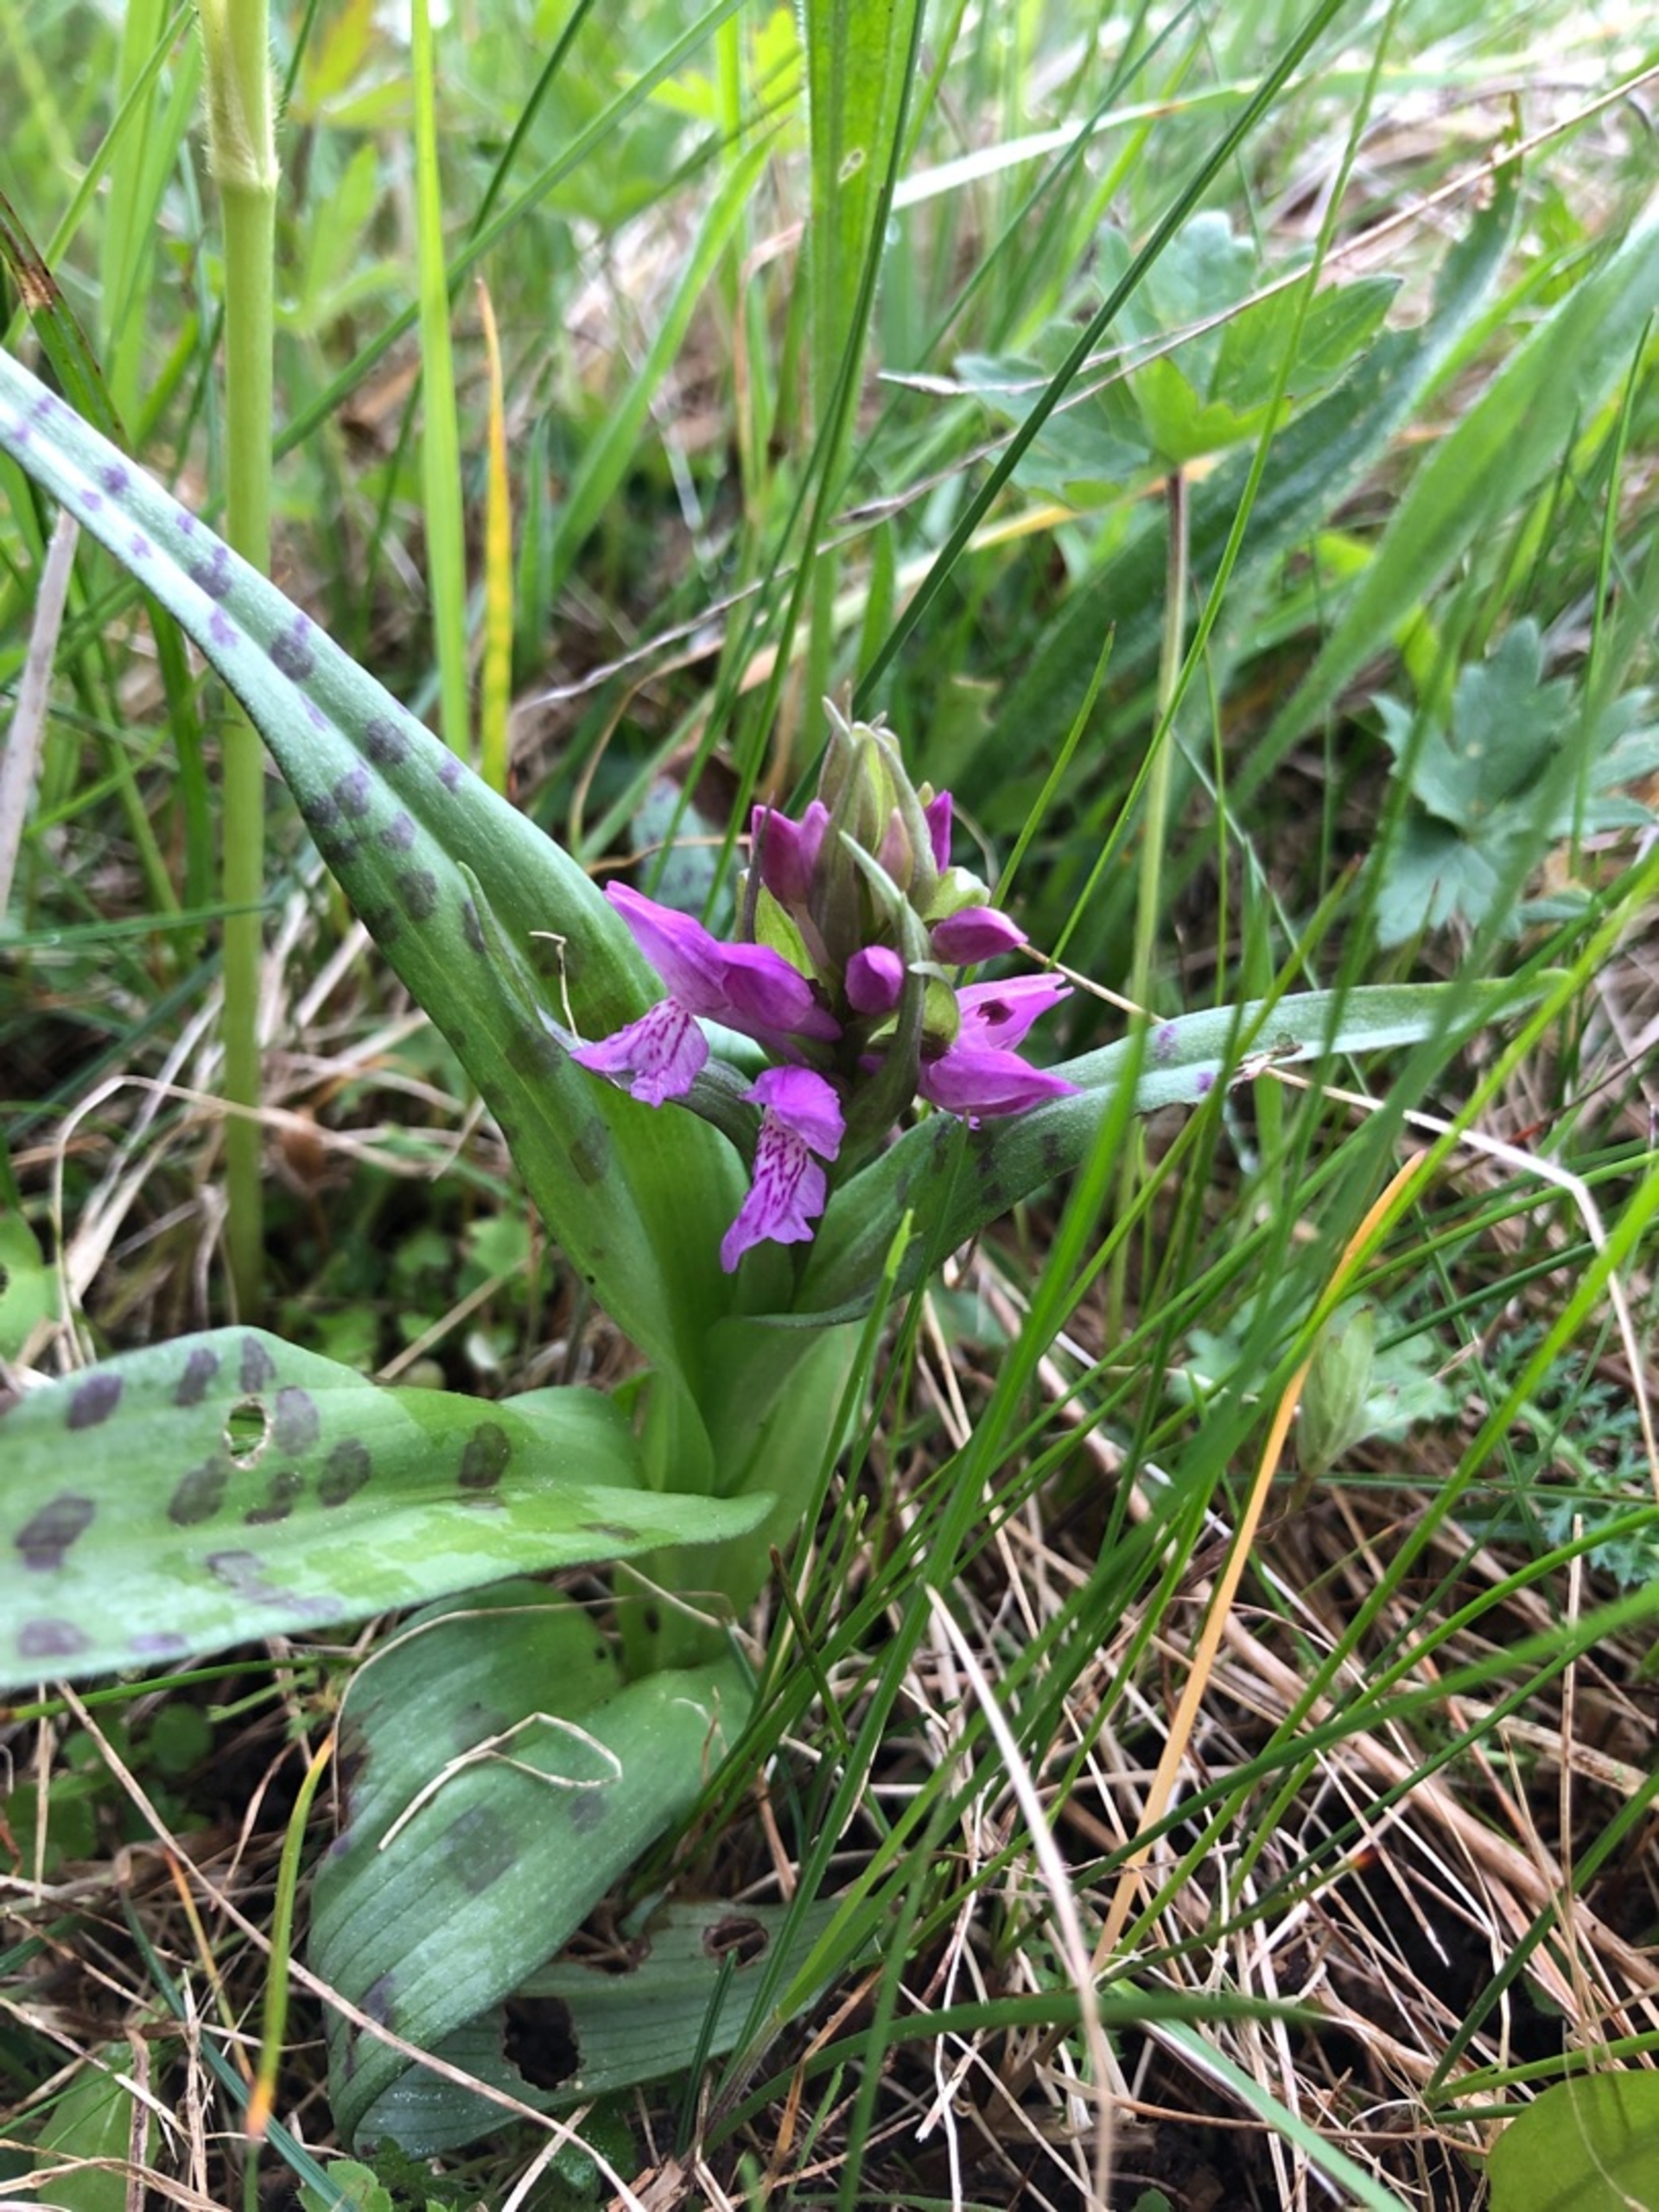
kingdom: Plantae
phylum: Tracheophyta
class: Liliopsida
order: Asparagales
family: Orchidaceae
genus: Dactylorhiza
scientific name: Dactylorhiza majalis
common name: Maj-gøgeurt
